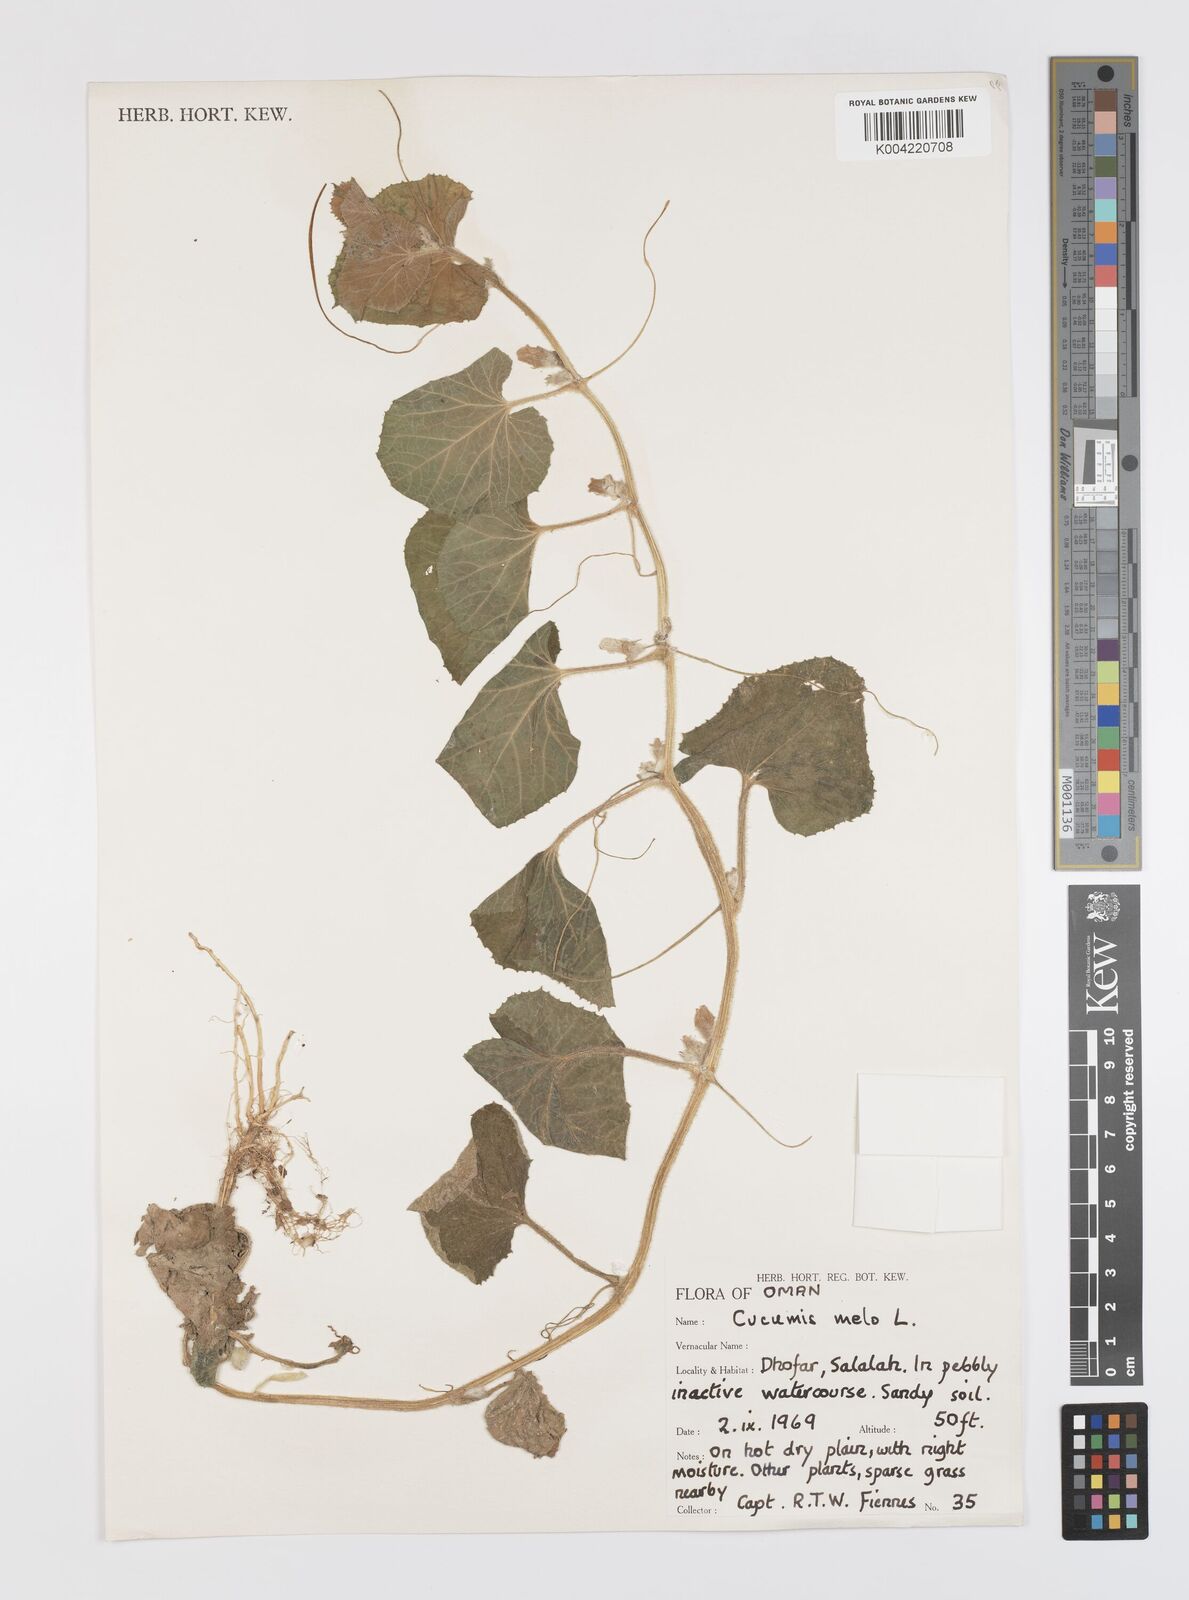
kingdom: Plantae
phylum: Tracheophyta
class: Magnoliopsida
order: Cucurbitales
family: Cucurbitaceae
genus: Cucumis
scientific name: Cucumis melo
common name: Melon
